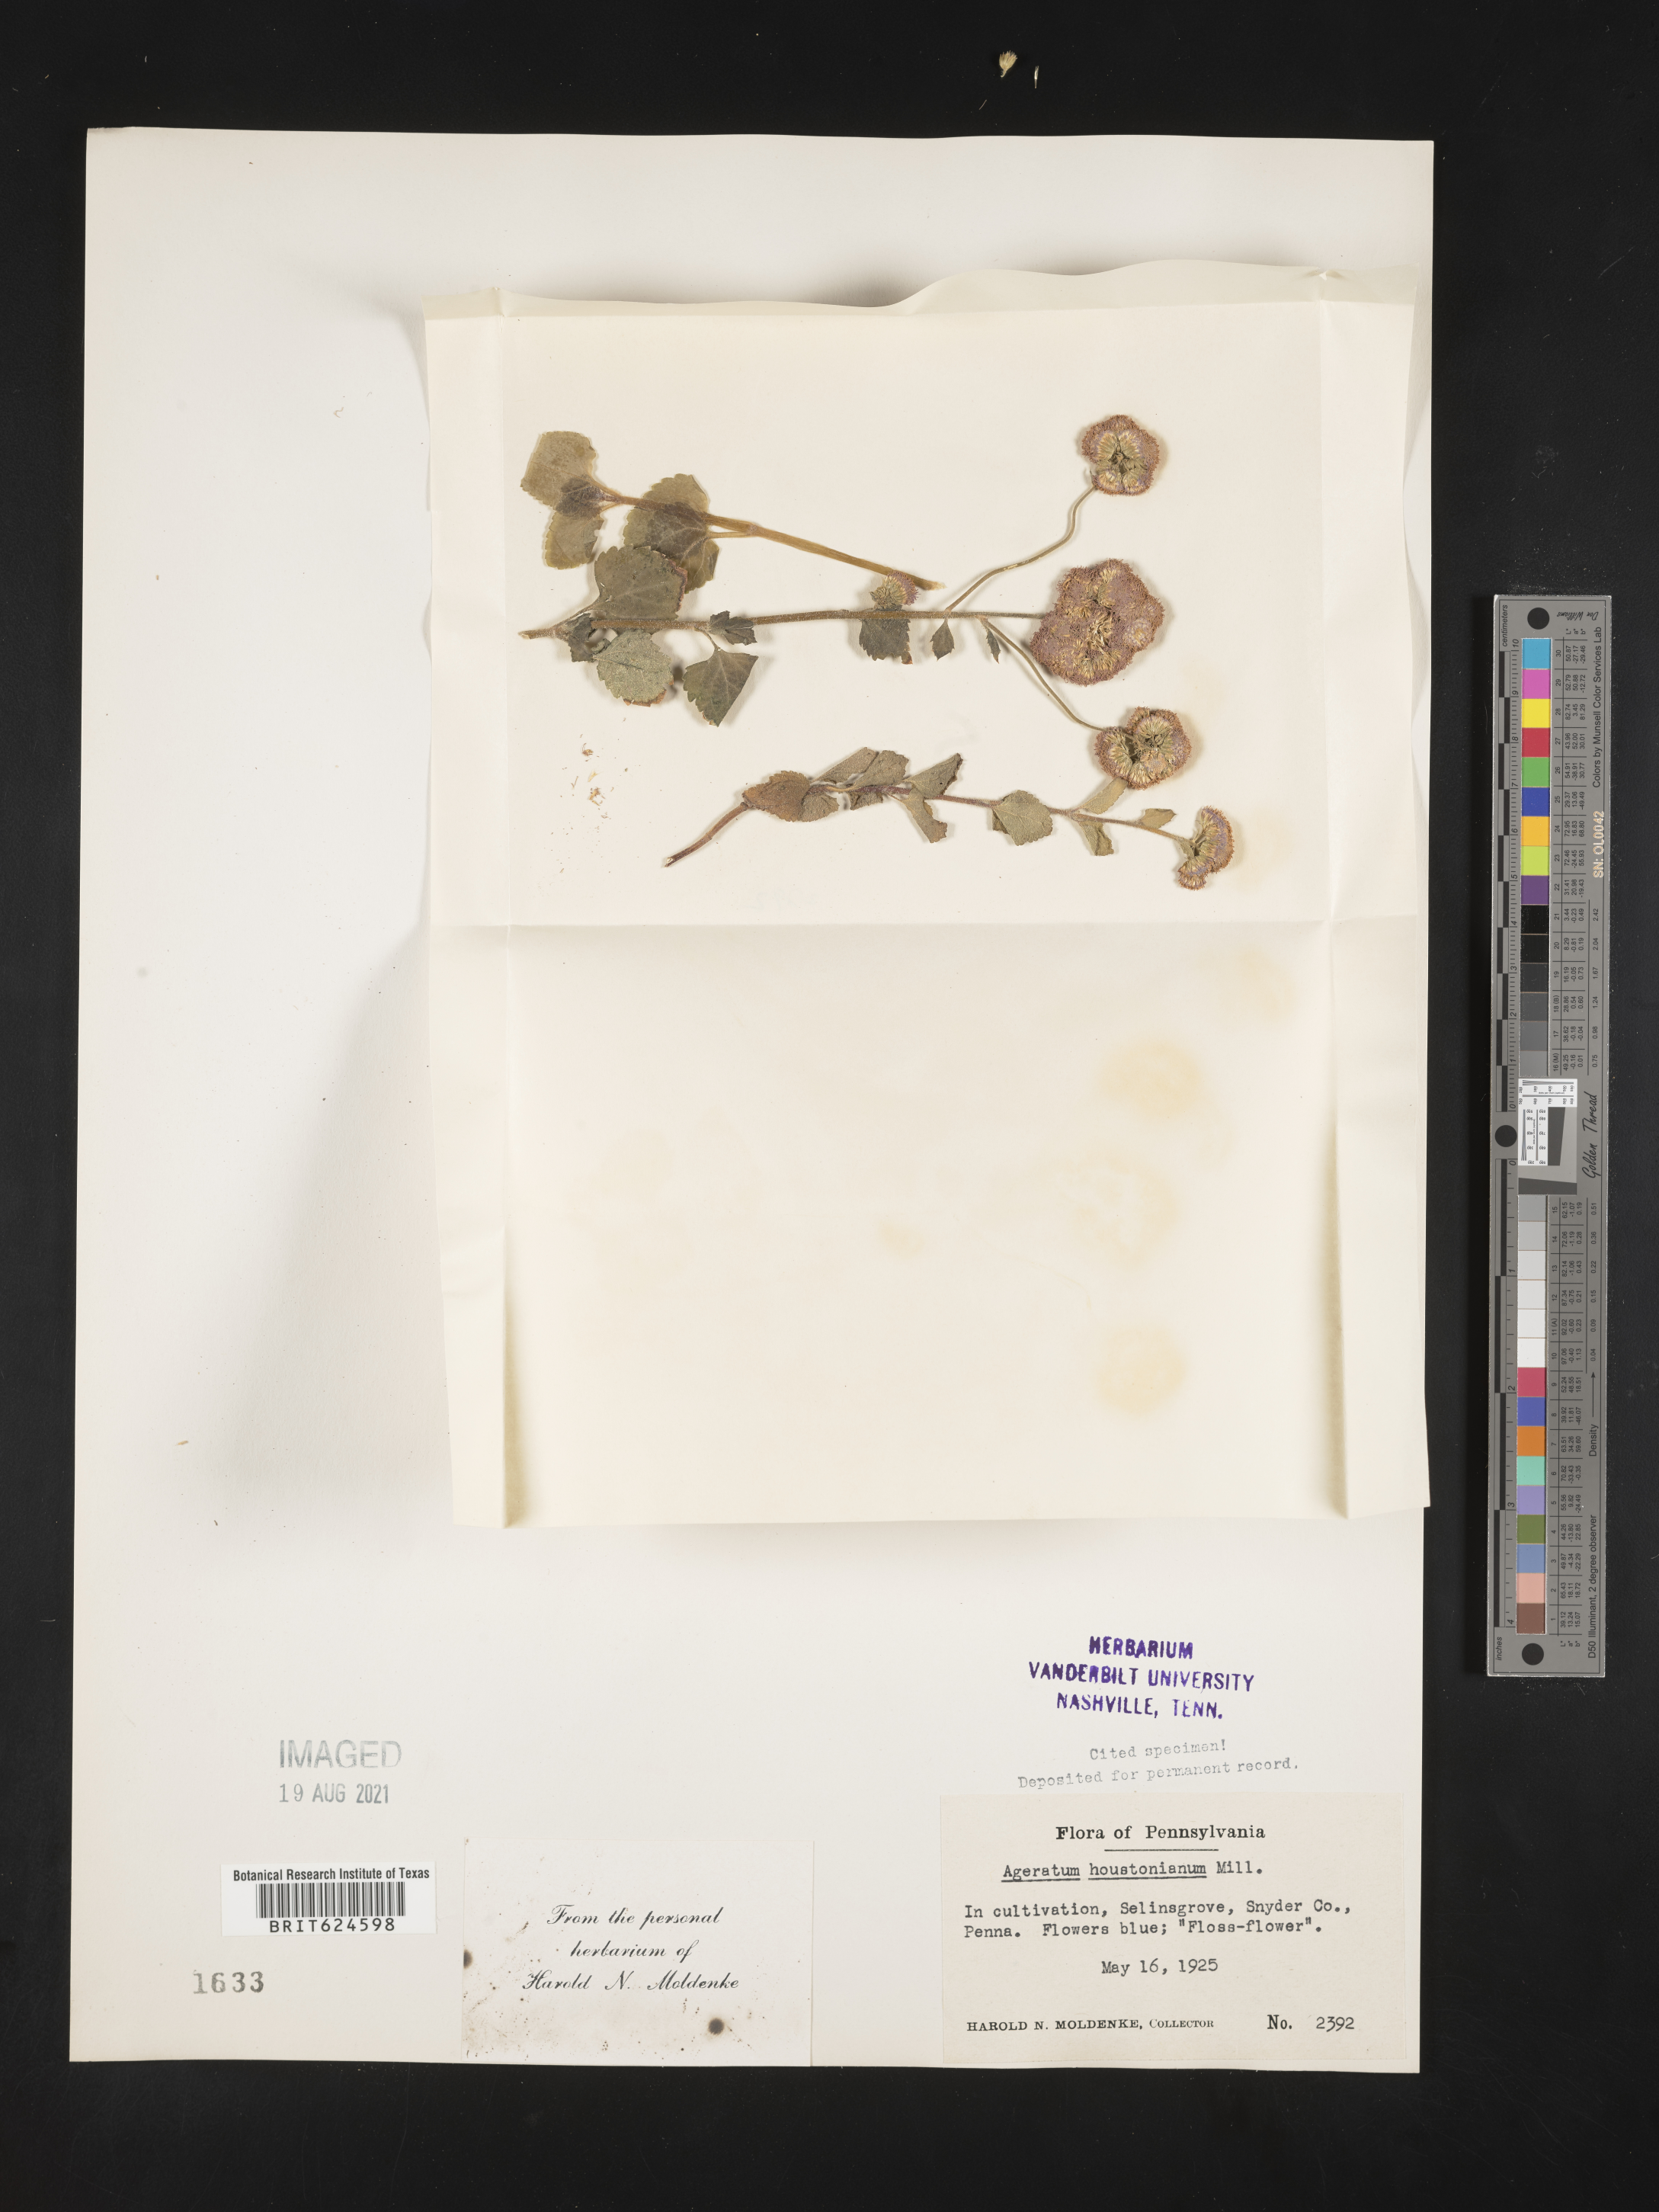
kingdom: Plantae
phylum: Tracheophyta
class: Magnoliopsida
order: Asterales
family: Asteraceae
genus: Ageratum
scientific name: Ageratum houstonianum
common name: Bluemink
